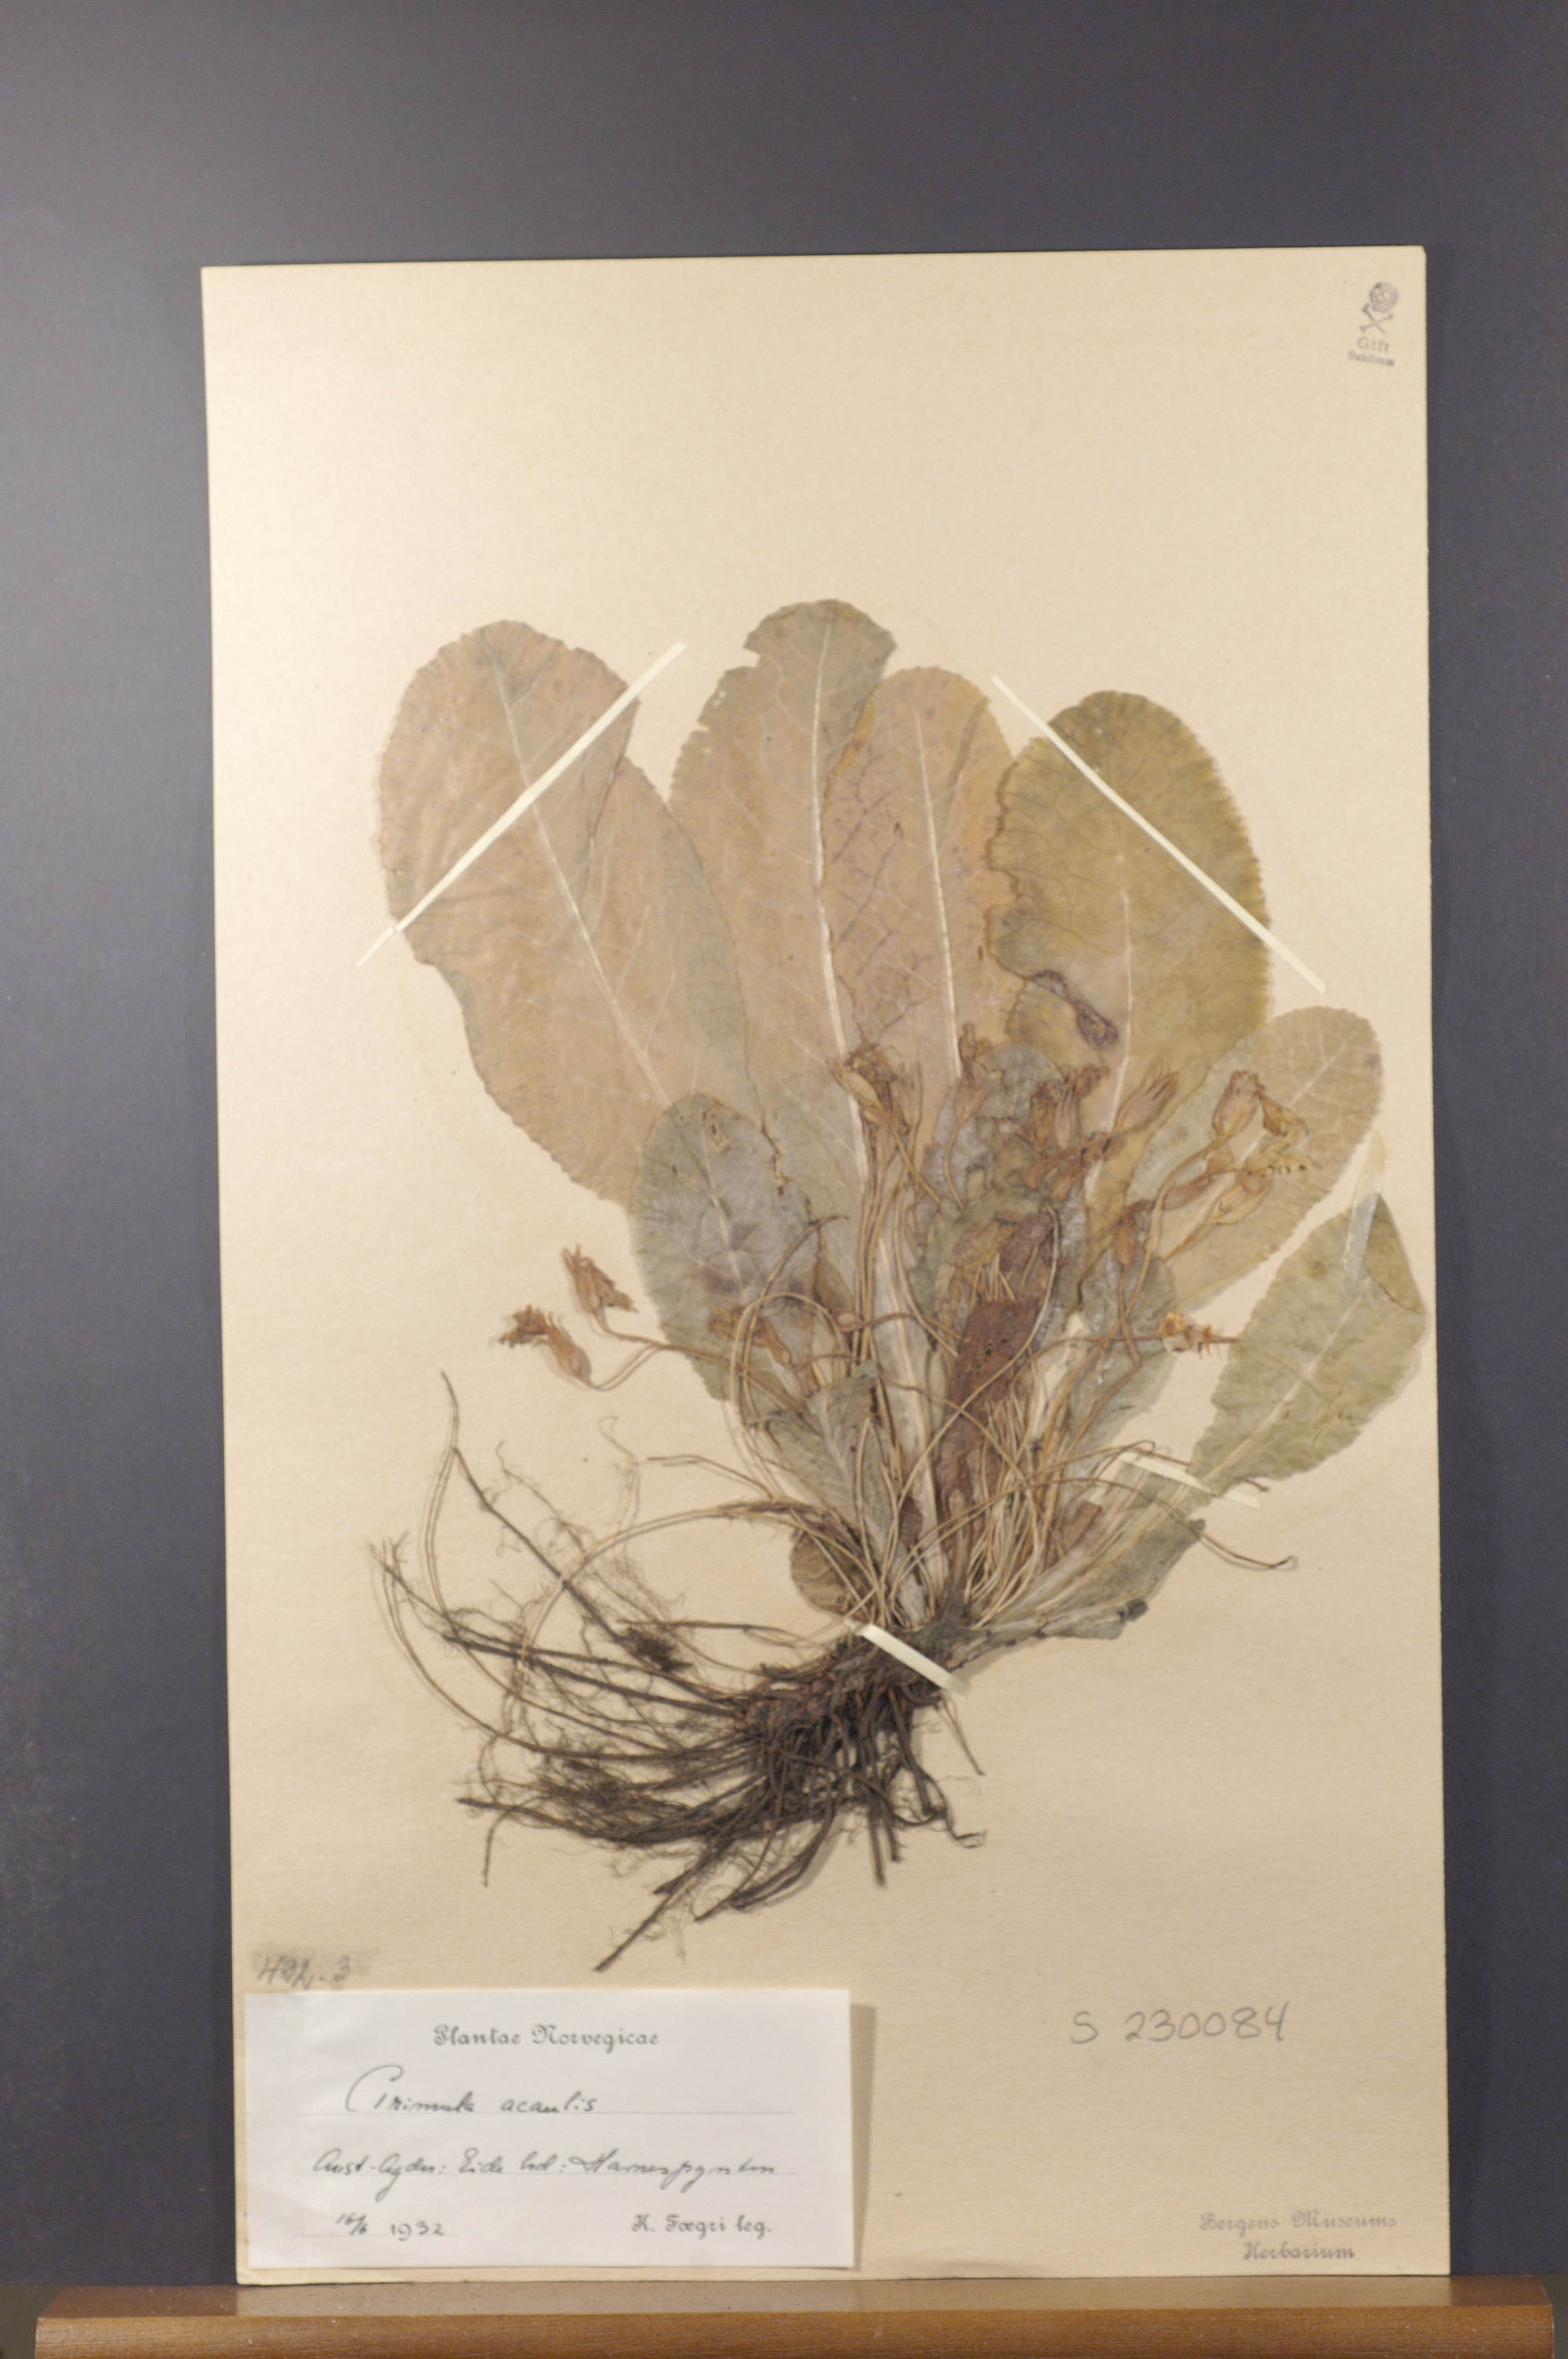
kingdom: Plantae
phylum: Tracheophyta
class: Magnoliopsida
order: Ericales
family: Primulaceae
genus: Primula
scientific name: Primula vulgaris
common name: Primrose
